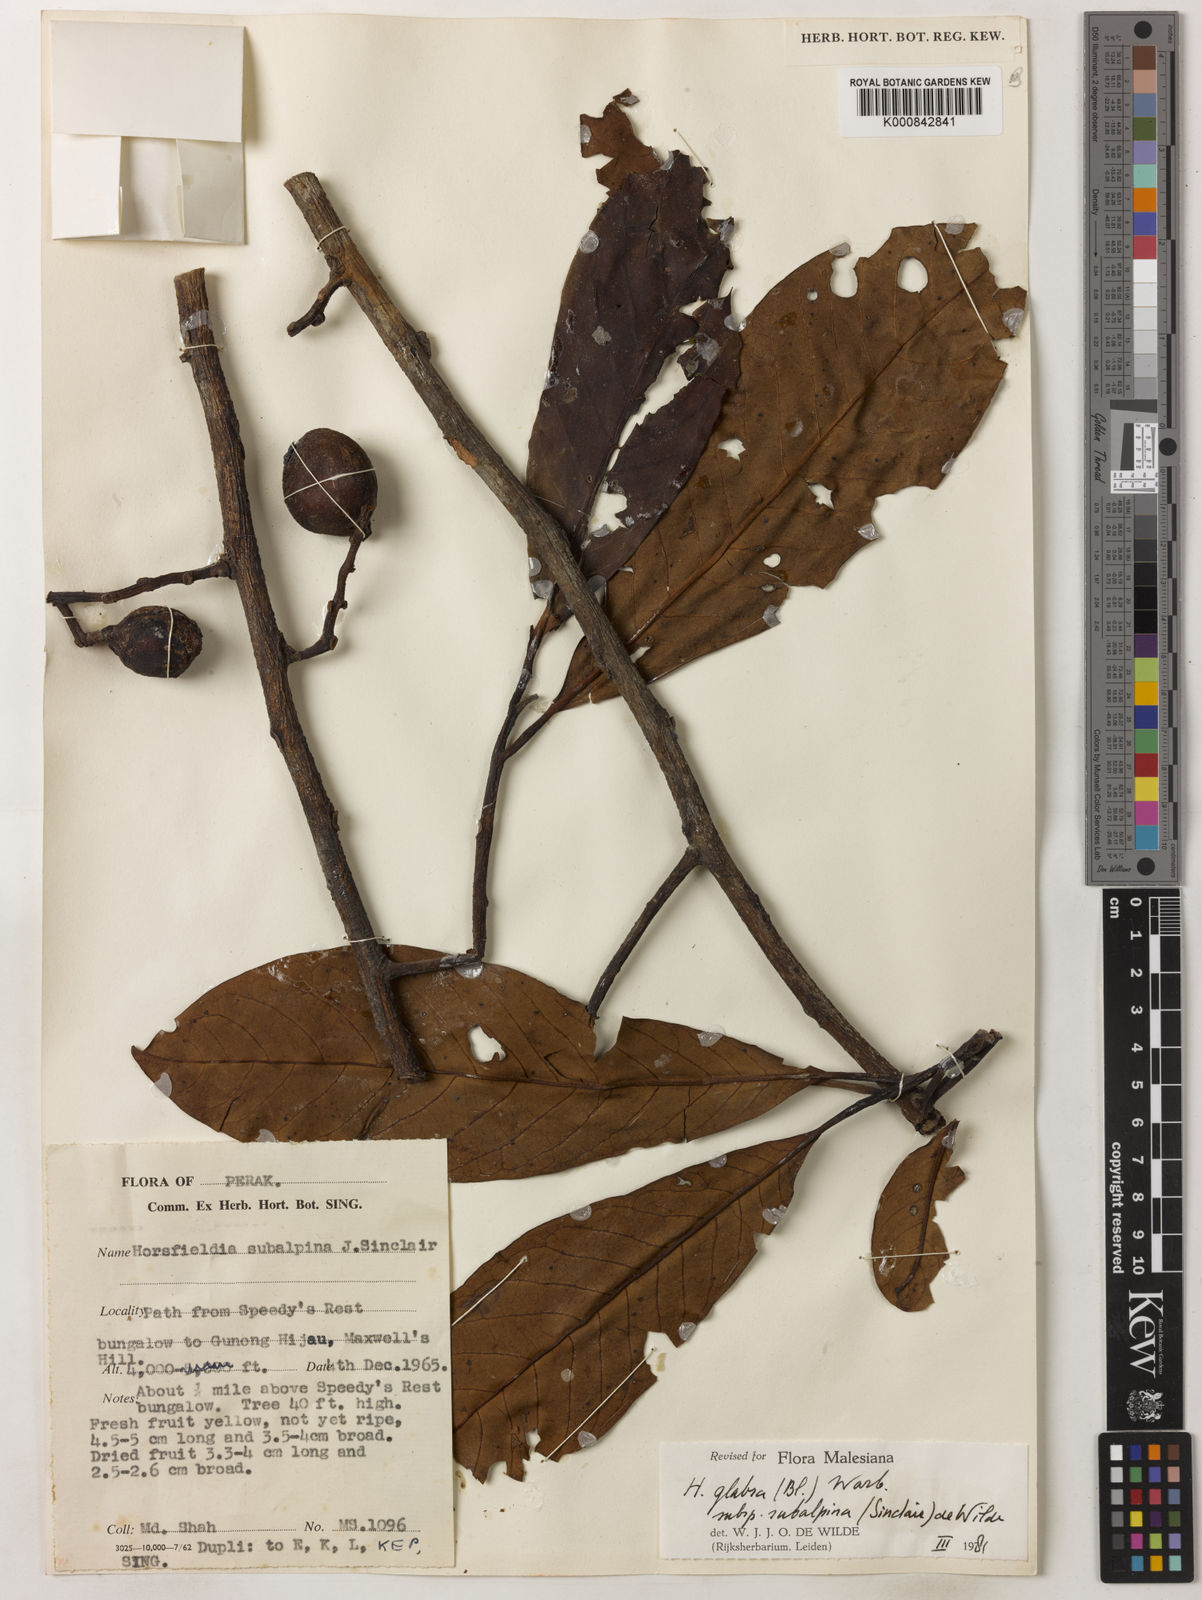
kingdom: Plantae
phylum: Tracheophyta
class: Magnoliopsida
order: Magnoliales
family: Myristicaceae
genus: Horsfieldia
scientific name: Horsfieldia
